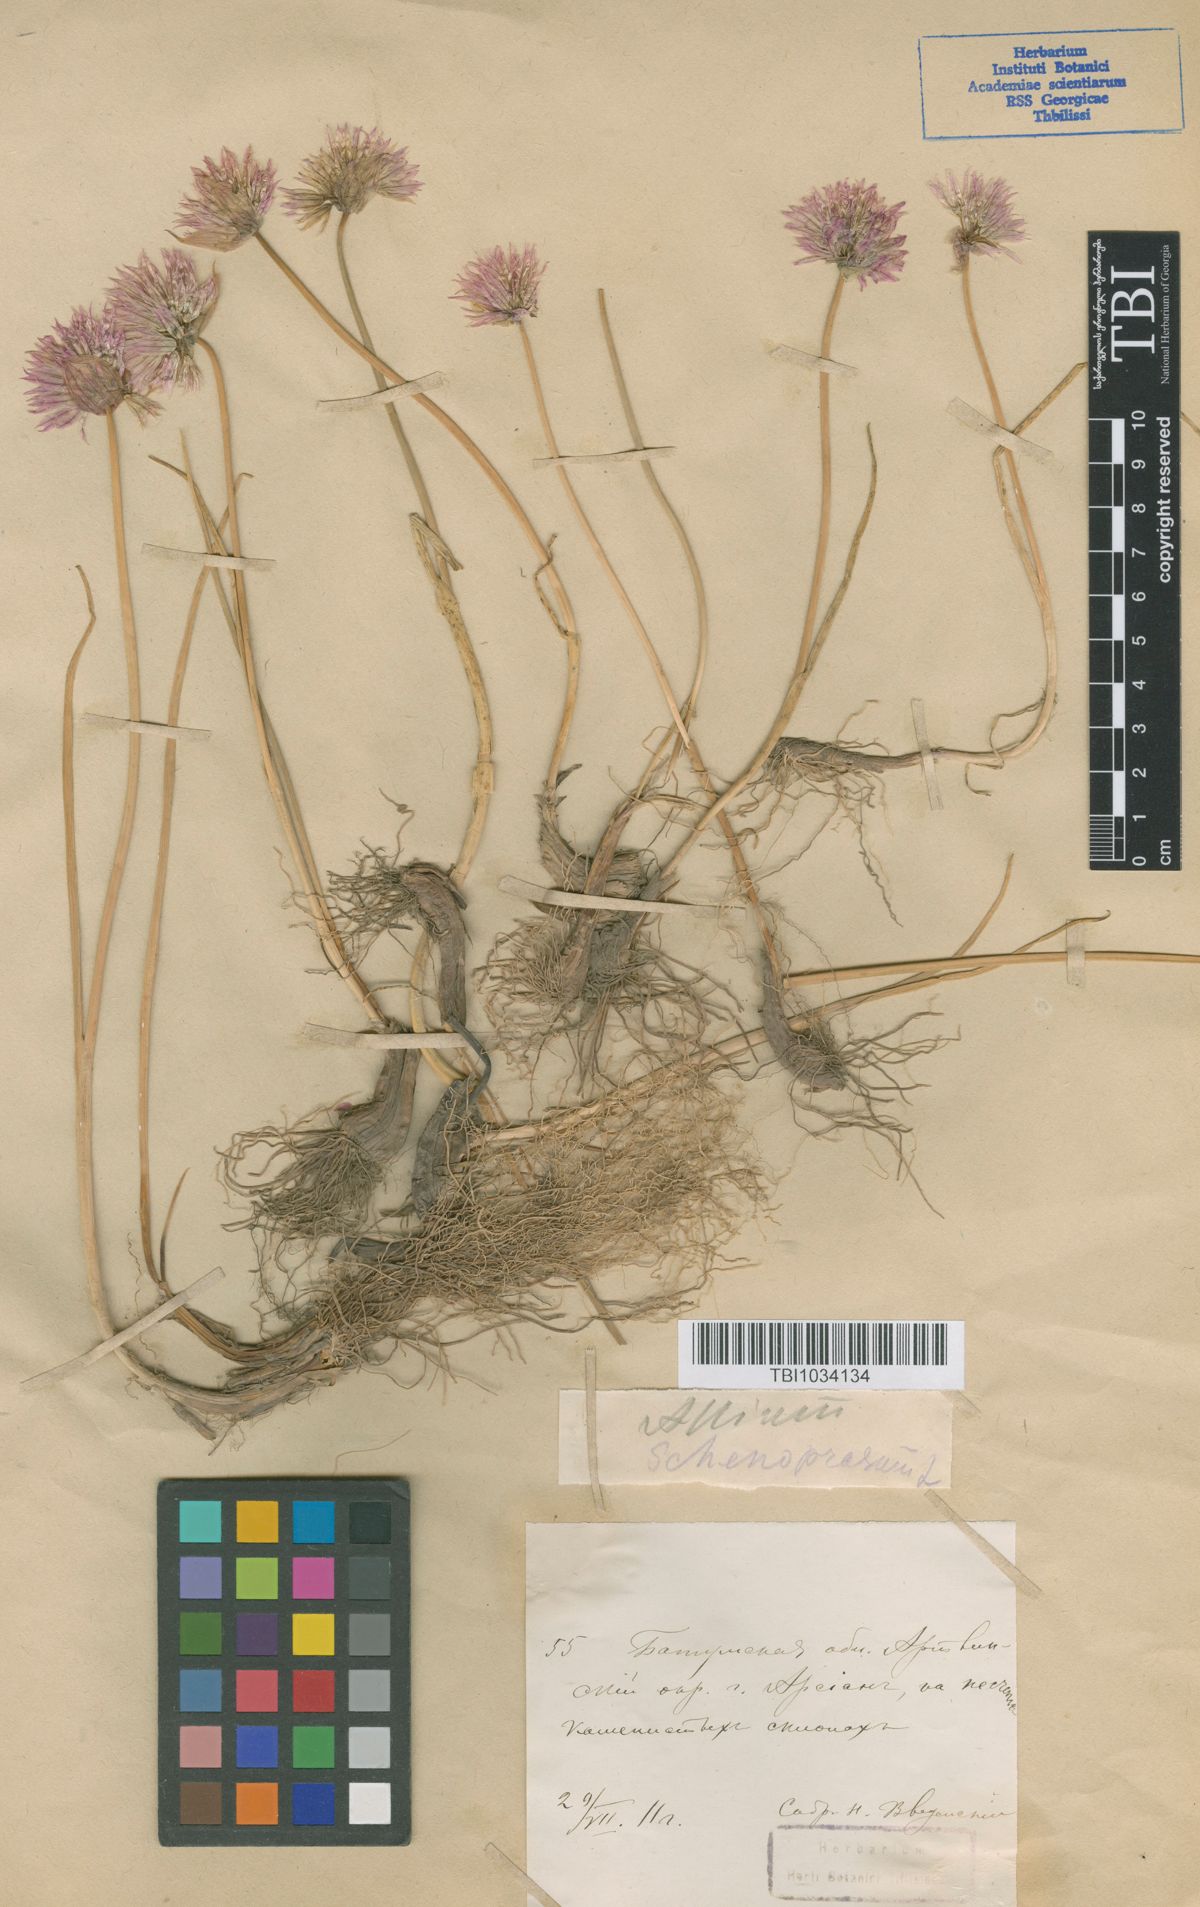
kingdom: Plantae
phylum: Tracheophyta
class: Liliopsida
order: Asparagales
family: Amaryllidaceae
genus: Allium
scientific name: Allium schoenoprasum
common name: Chives
